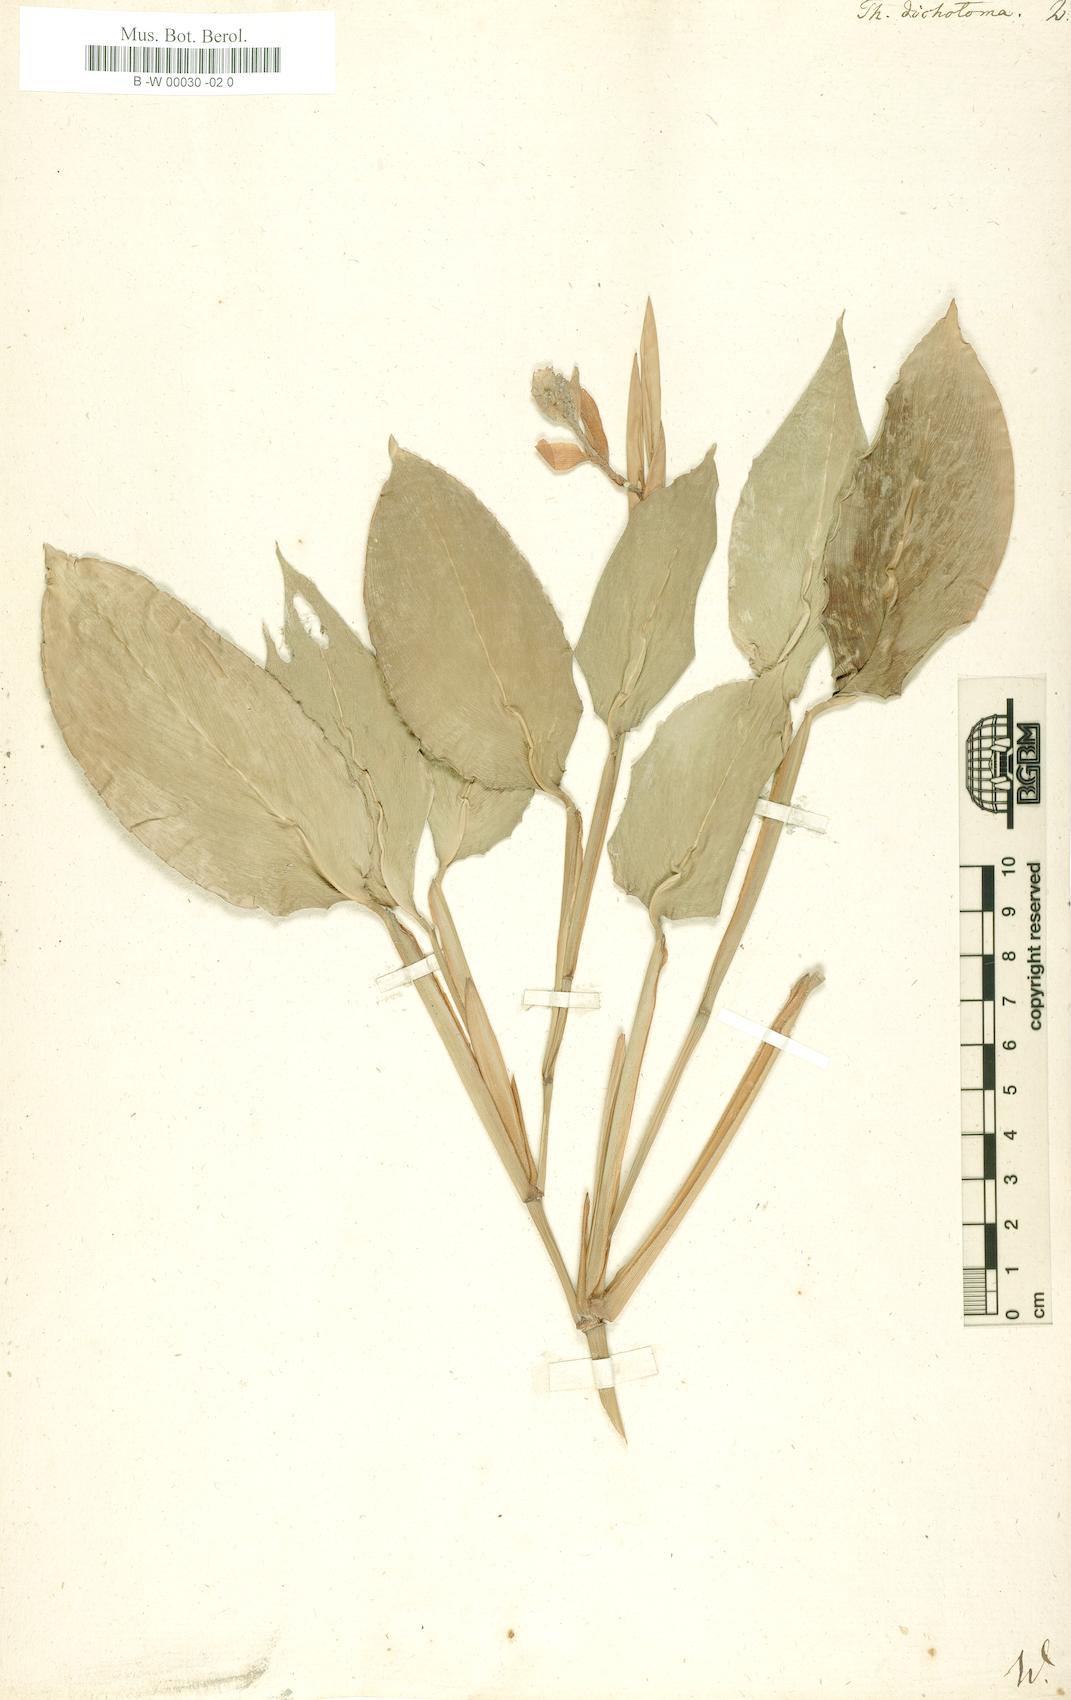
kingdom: Plantae
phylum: Tracheophyta
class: Liliopsida
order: Zingiberales
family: Marantaceae
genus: Schumannianthus
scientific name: Schumannianthus benthamianus
